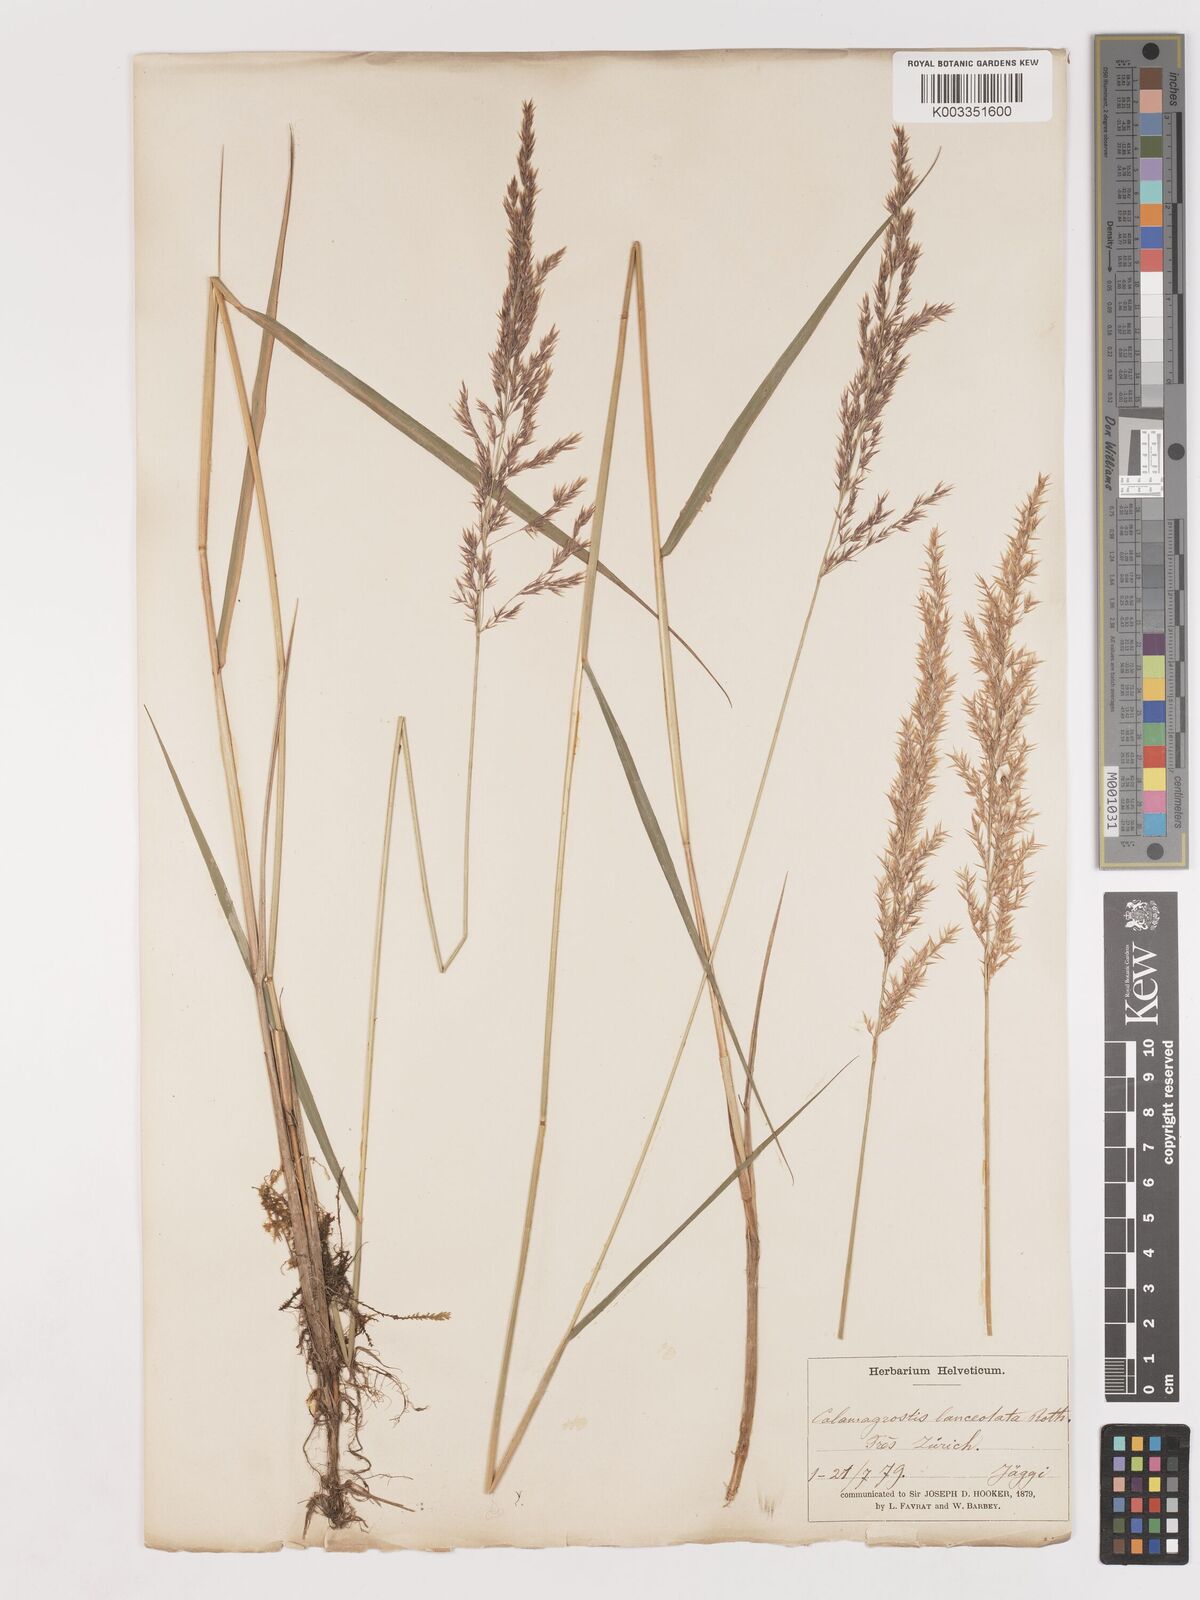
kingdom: Plantae
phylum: Tracheophyta
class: Liliopsida
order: Poales
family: Poaceae
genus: Calamagrostis
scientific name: Calamagrostis canescens
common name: Purple small-reed
